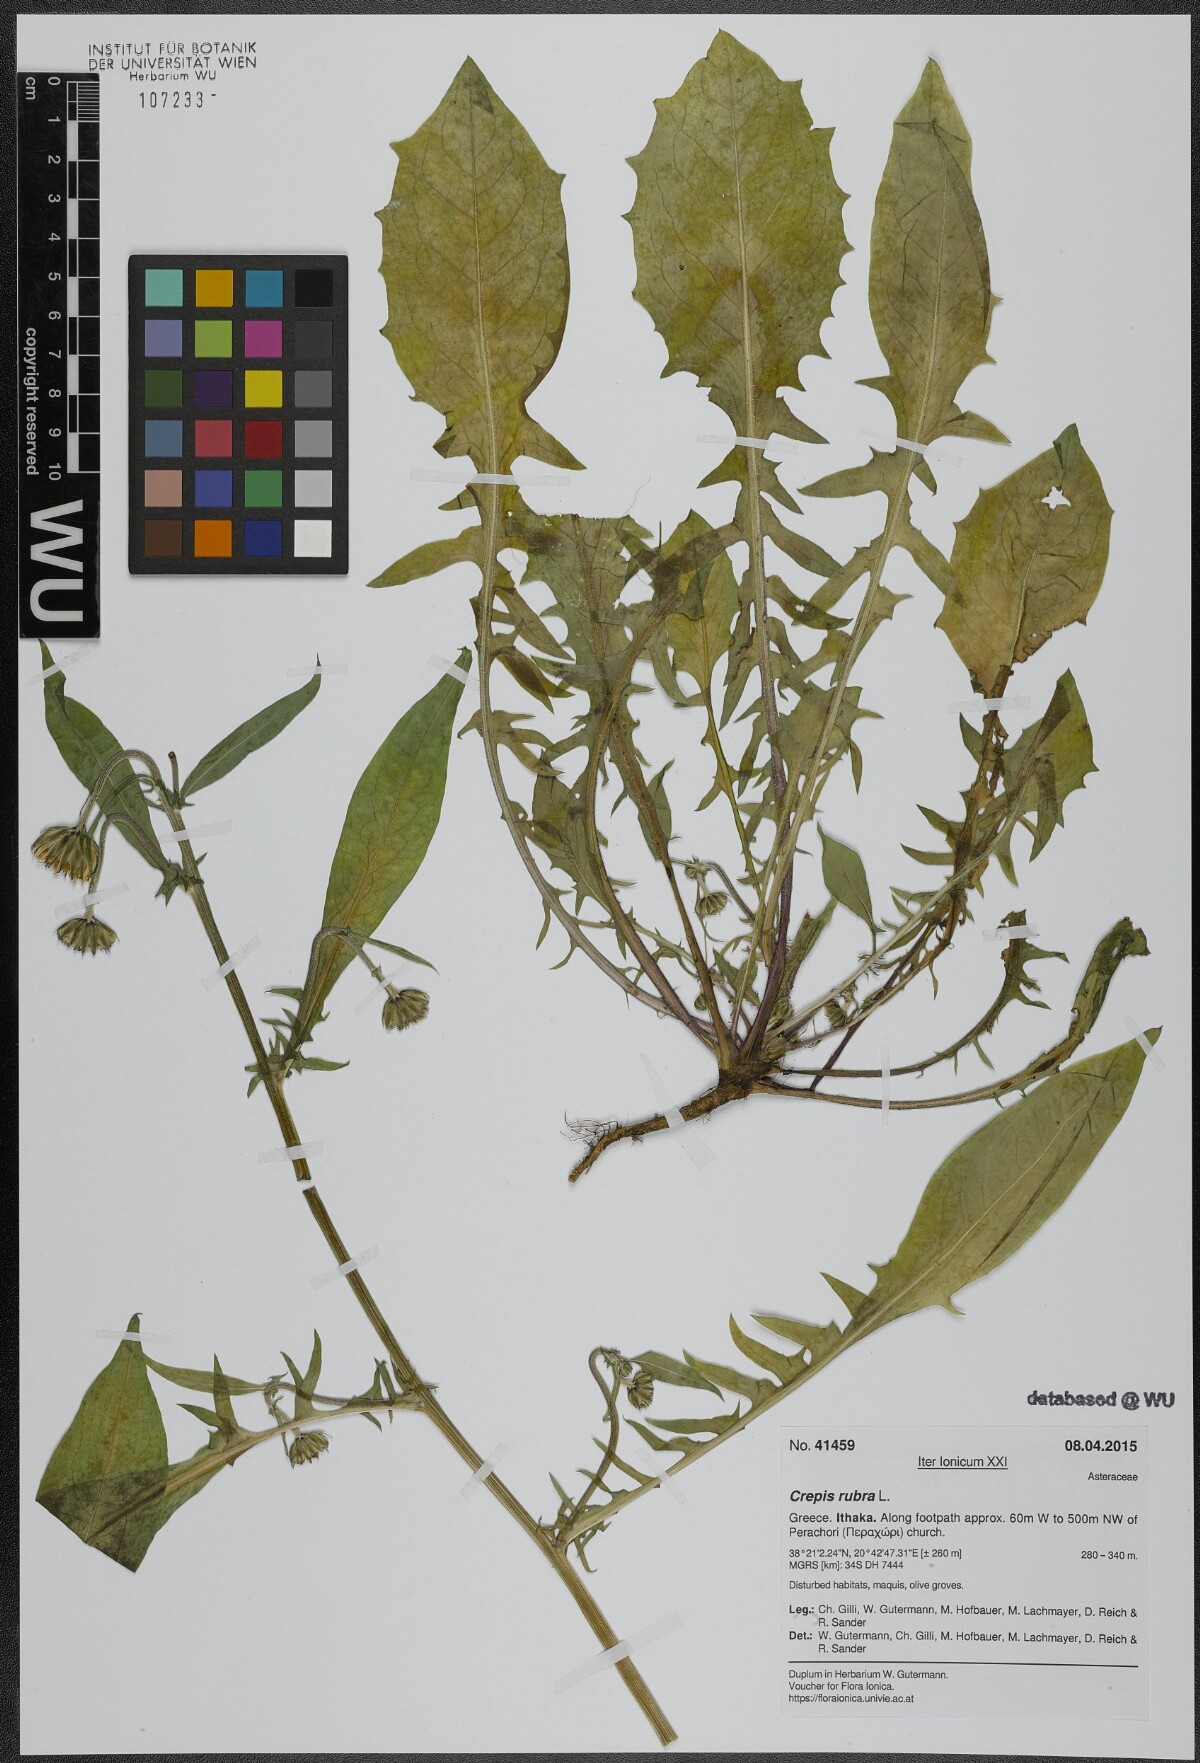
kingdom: Plantae
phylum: Tracheophyta
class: Magnoliopsida
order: Asterales
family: Asteraceae
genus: Crepis
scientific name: Crepis rubra
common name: Pink hawk's-beard
